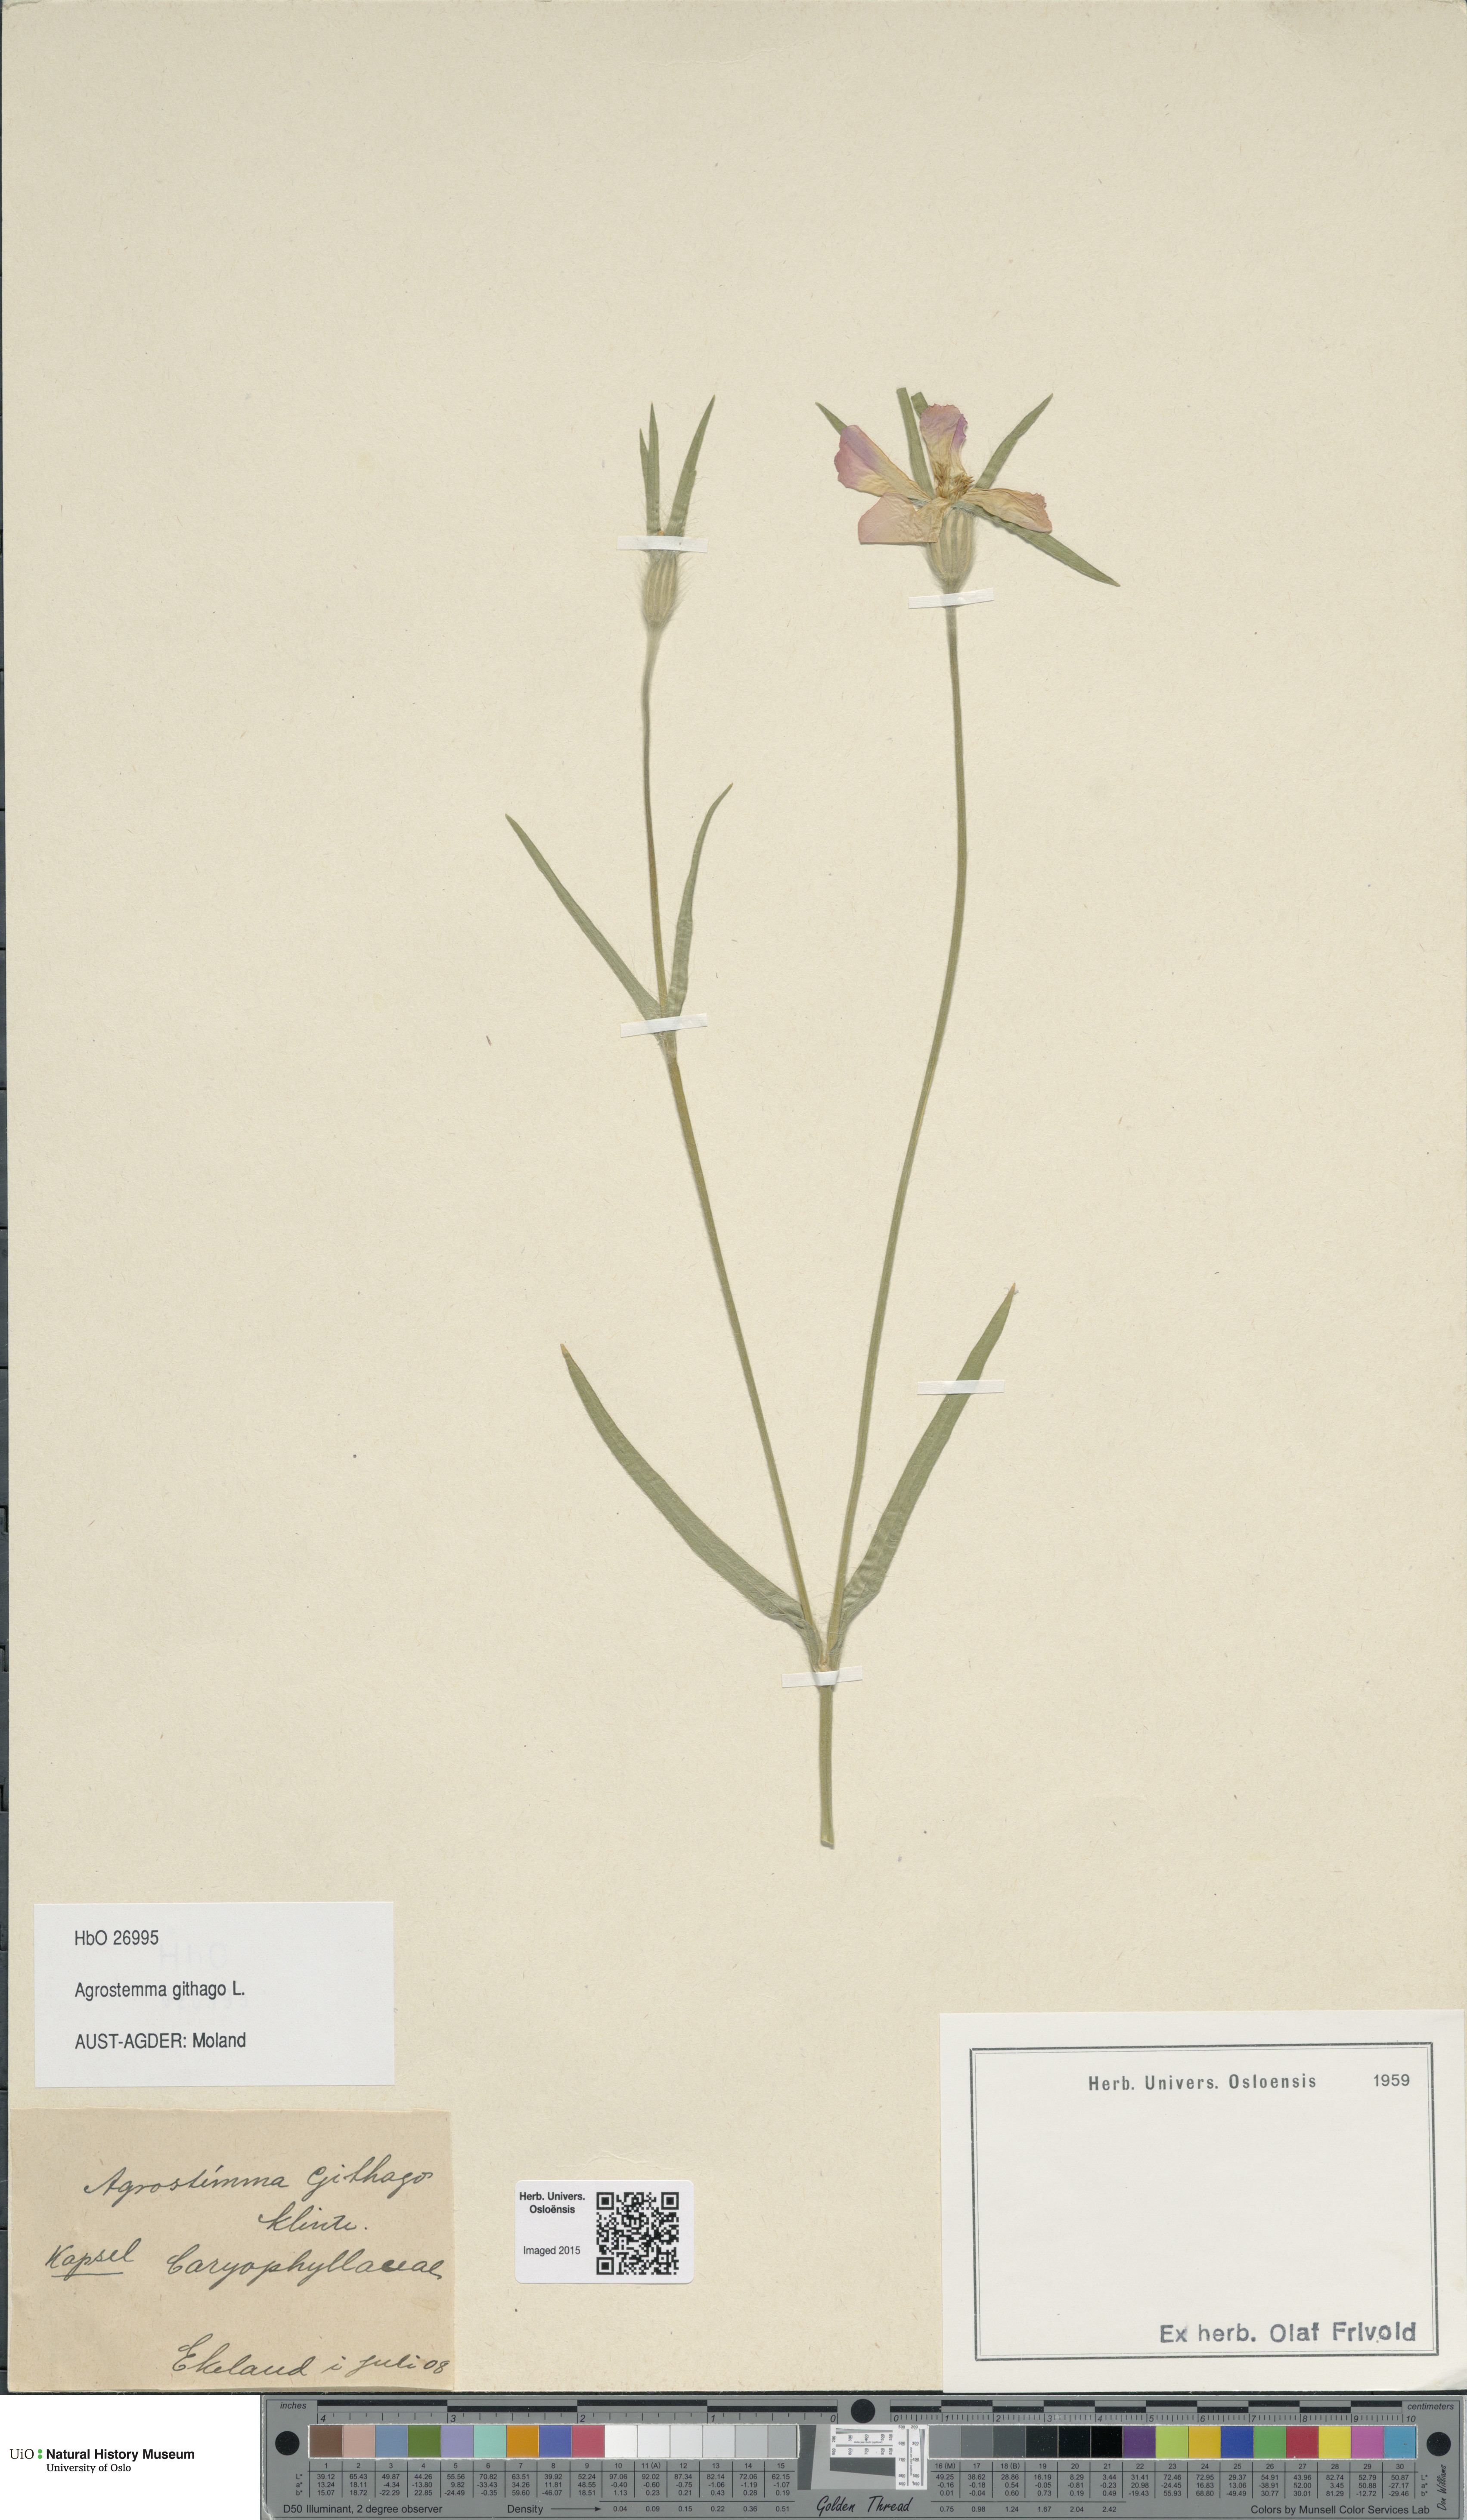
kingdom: Plantae
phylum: Tracheophyta
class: Magnoliopsida
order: Caryophyllales
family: Caryophyllaceae
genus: Agrostemma
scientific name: Agrostemma githago
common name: Common corncockle
